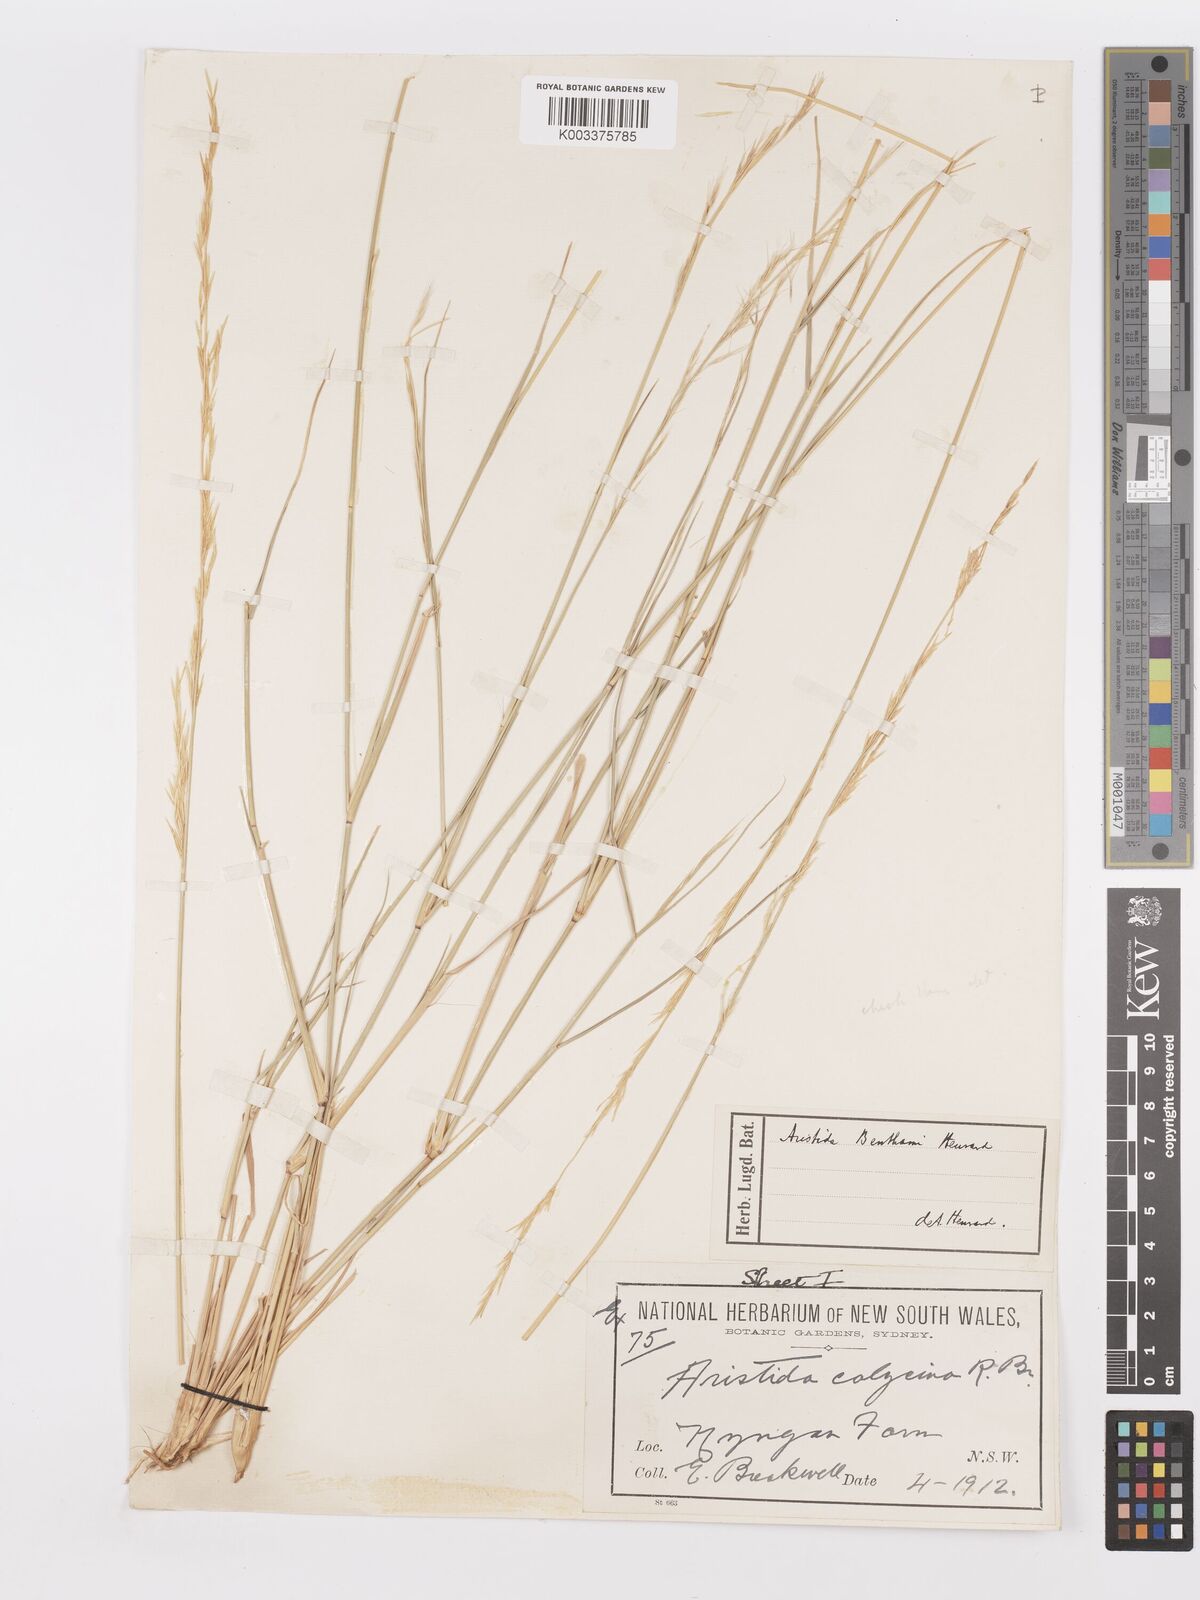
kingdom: Plantae
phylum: Tracheophyta
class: Liliopsida
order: Poales
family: Poaceae
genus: Aristida
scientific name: Aristida
